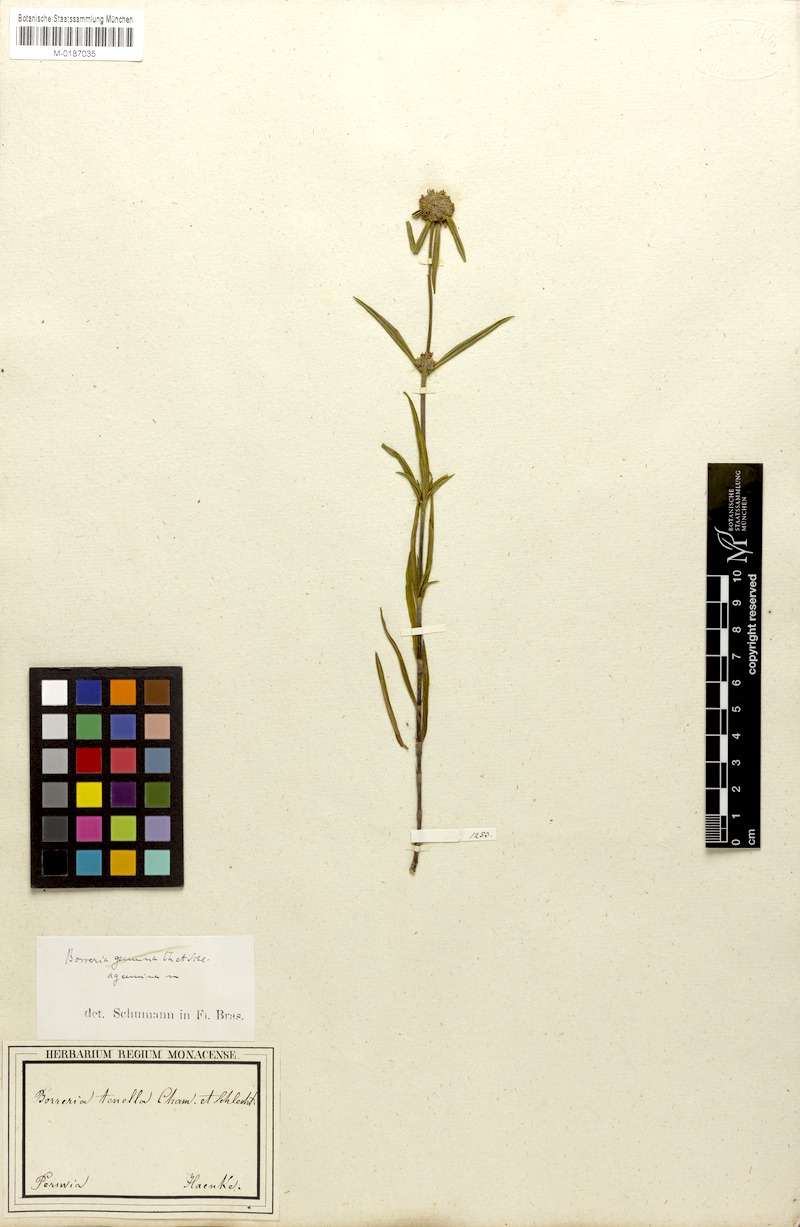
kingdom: Plantae
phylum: Tracheophyta
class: Magnoliopsida
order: Gentianales
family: Rubiaceae
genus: Spermacoce
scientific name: Spermacoce orinocensis
